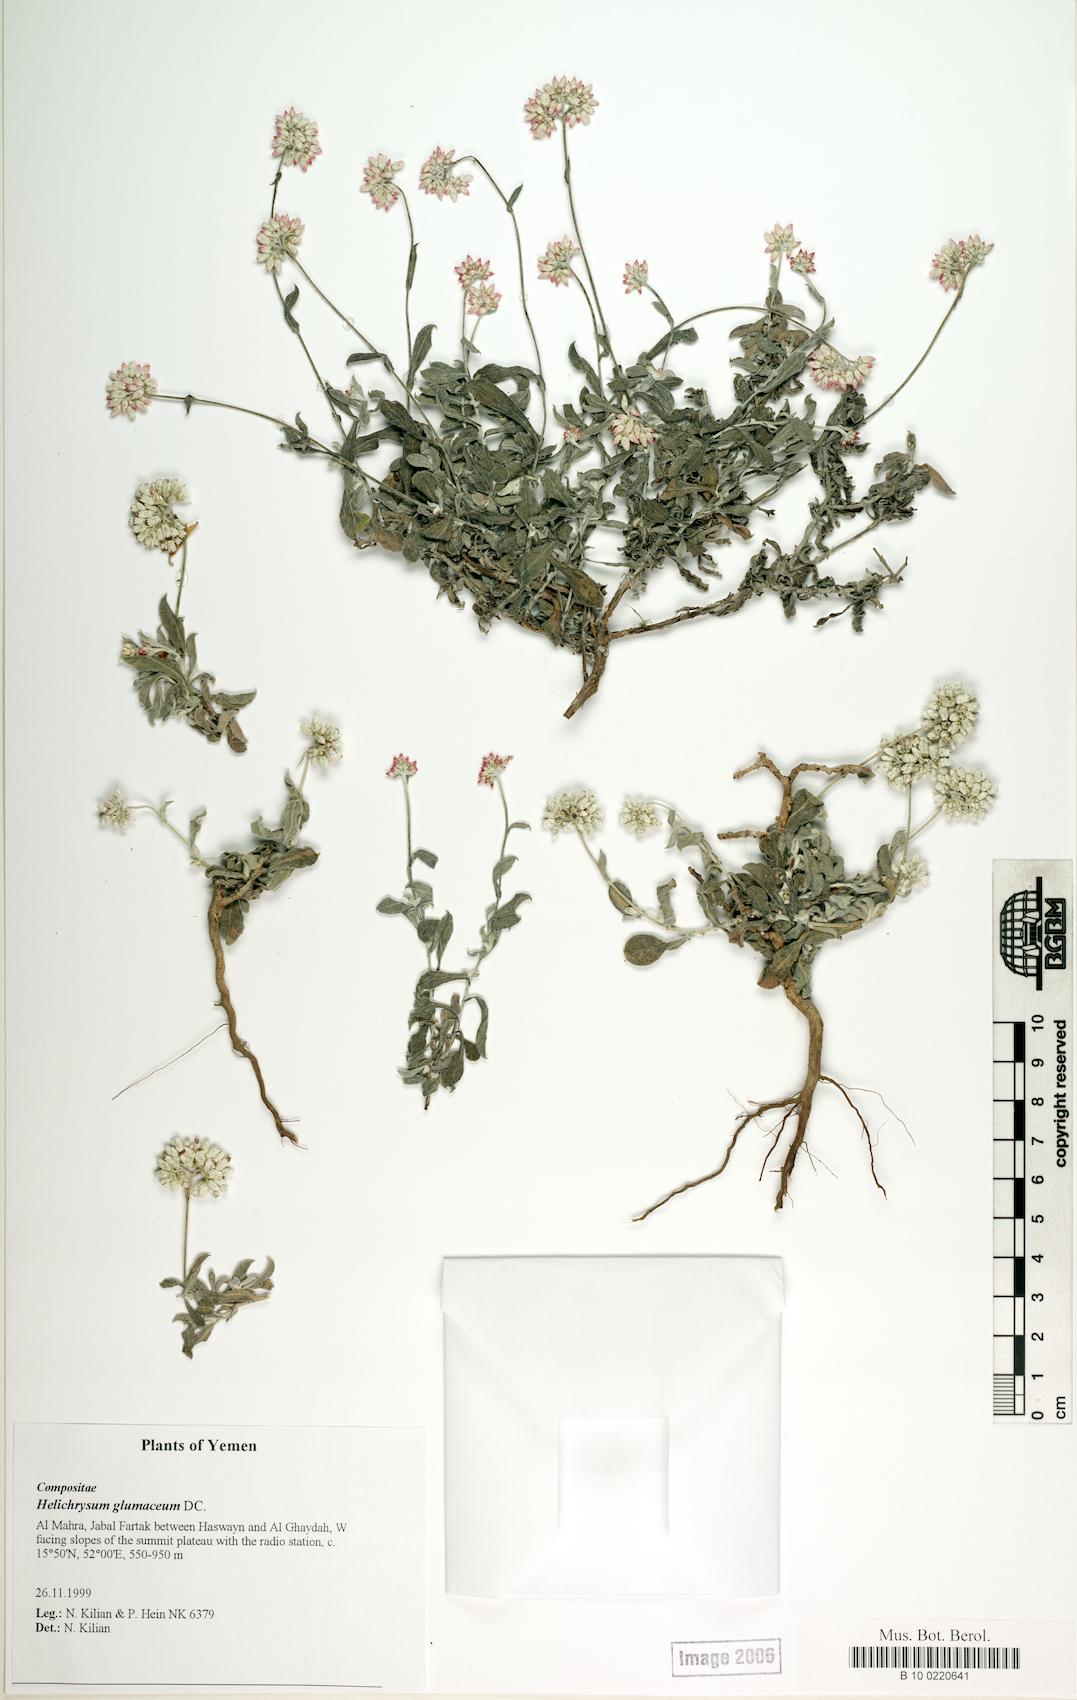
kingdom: Plantae
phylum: Tracheophyta
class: Magnoliopsida
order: Caryophyllales
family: Caryophyllaceae
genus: Arenaria
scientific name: Arenaria serpyllifolia
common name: Thyme-leaved sandwort
